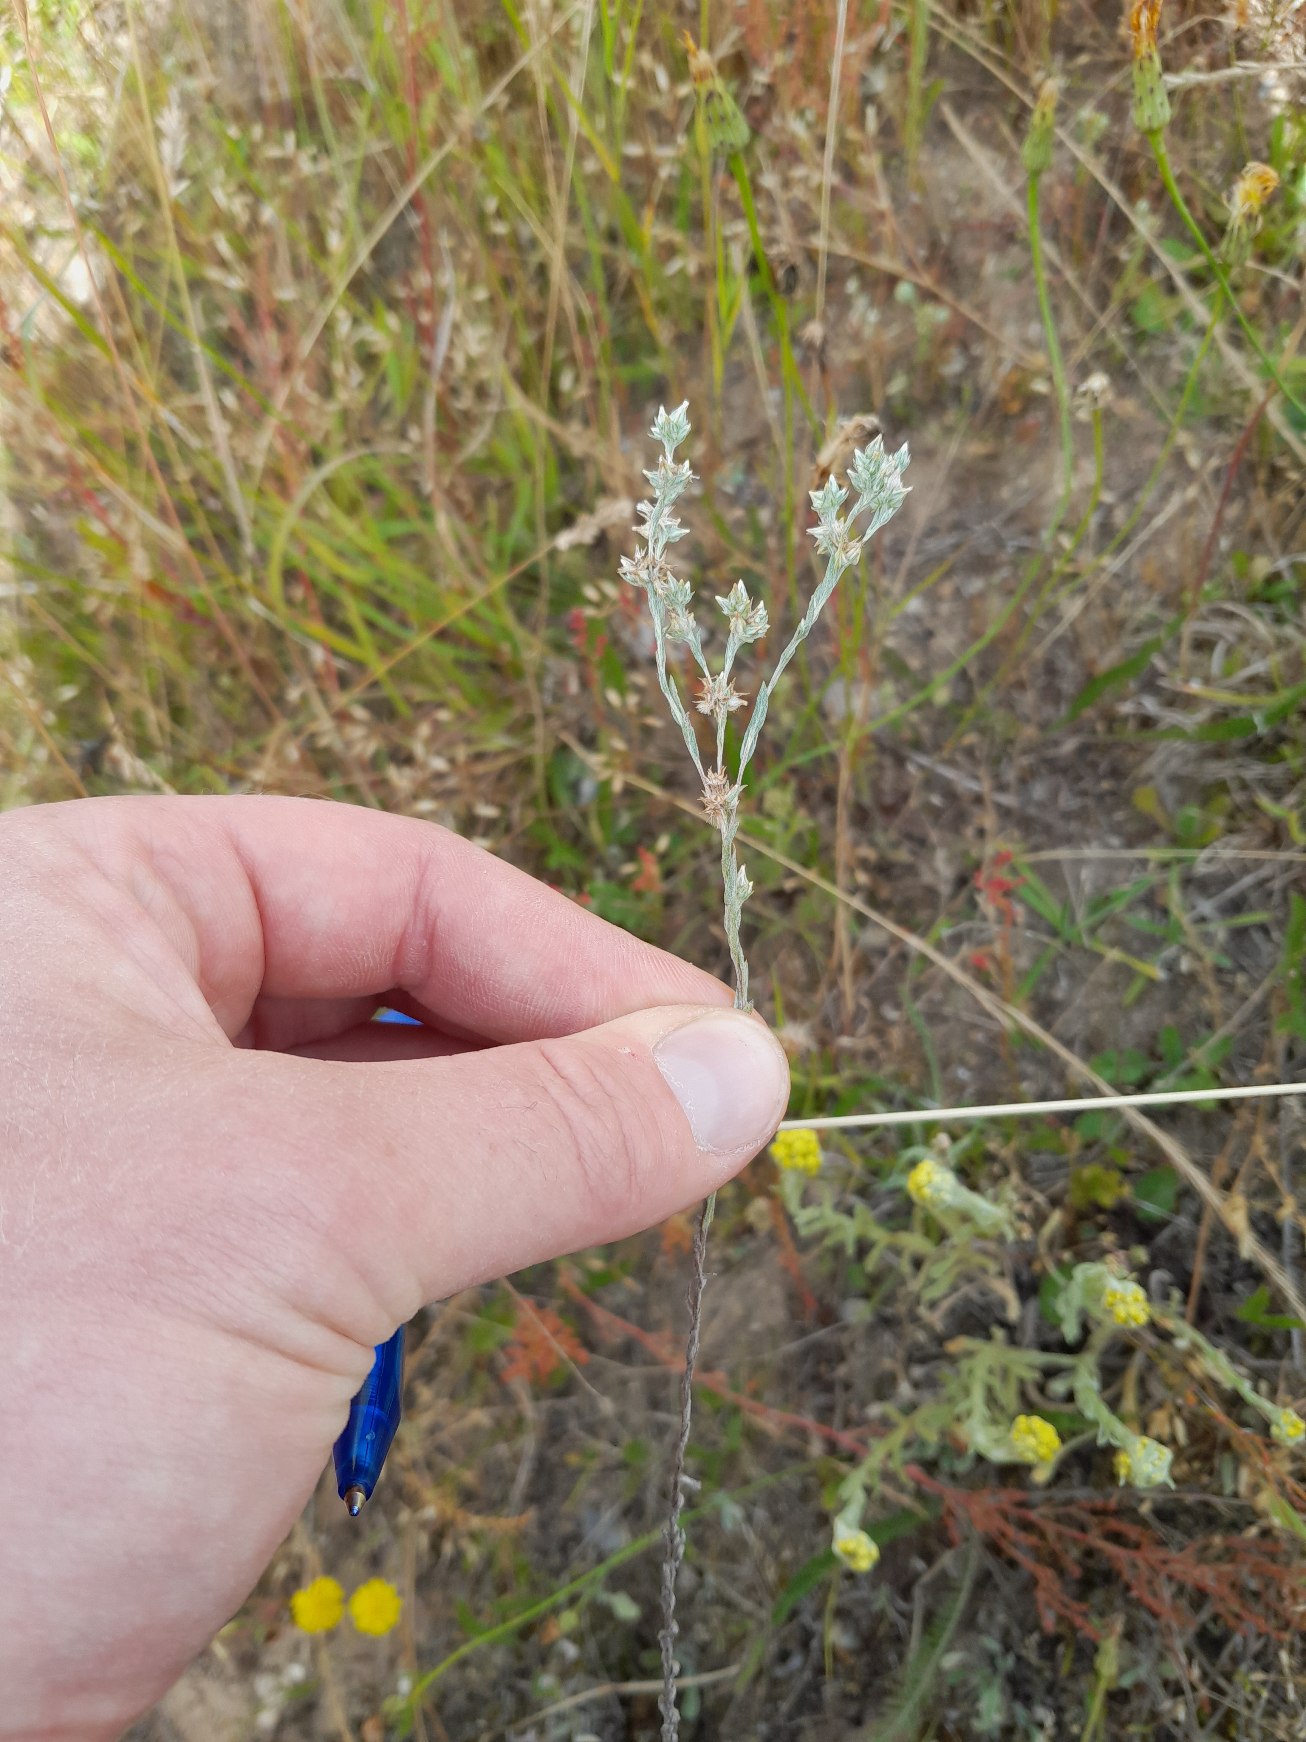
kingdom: Plantae
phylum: Tracheophyta
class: Magnoliopsida
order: Asterales
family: Asteraceae
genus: Logfia
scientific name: Logfia minima
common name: Liden museurt
